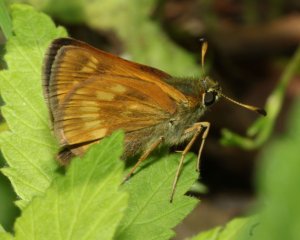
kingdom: Animalia
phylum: Arthropoda
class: Insecta
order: Lepidoptera
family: Hesperiidae
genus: Polites
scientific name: Polites
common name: Long Dash Skipper
